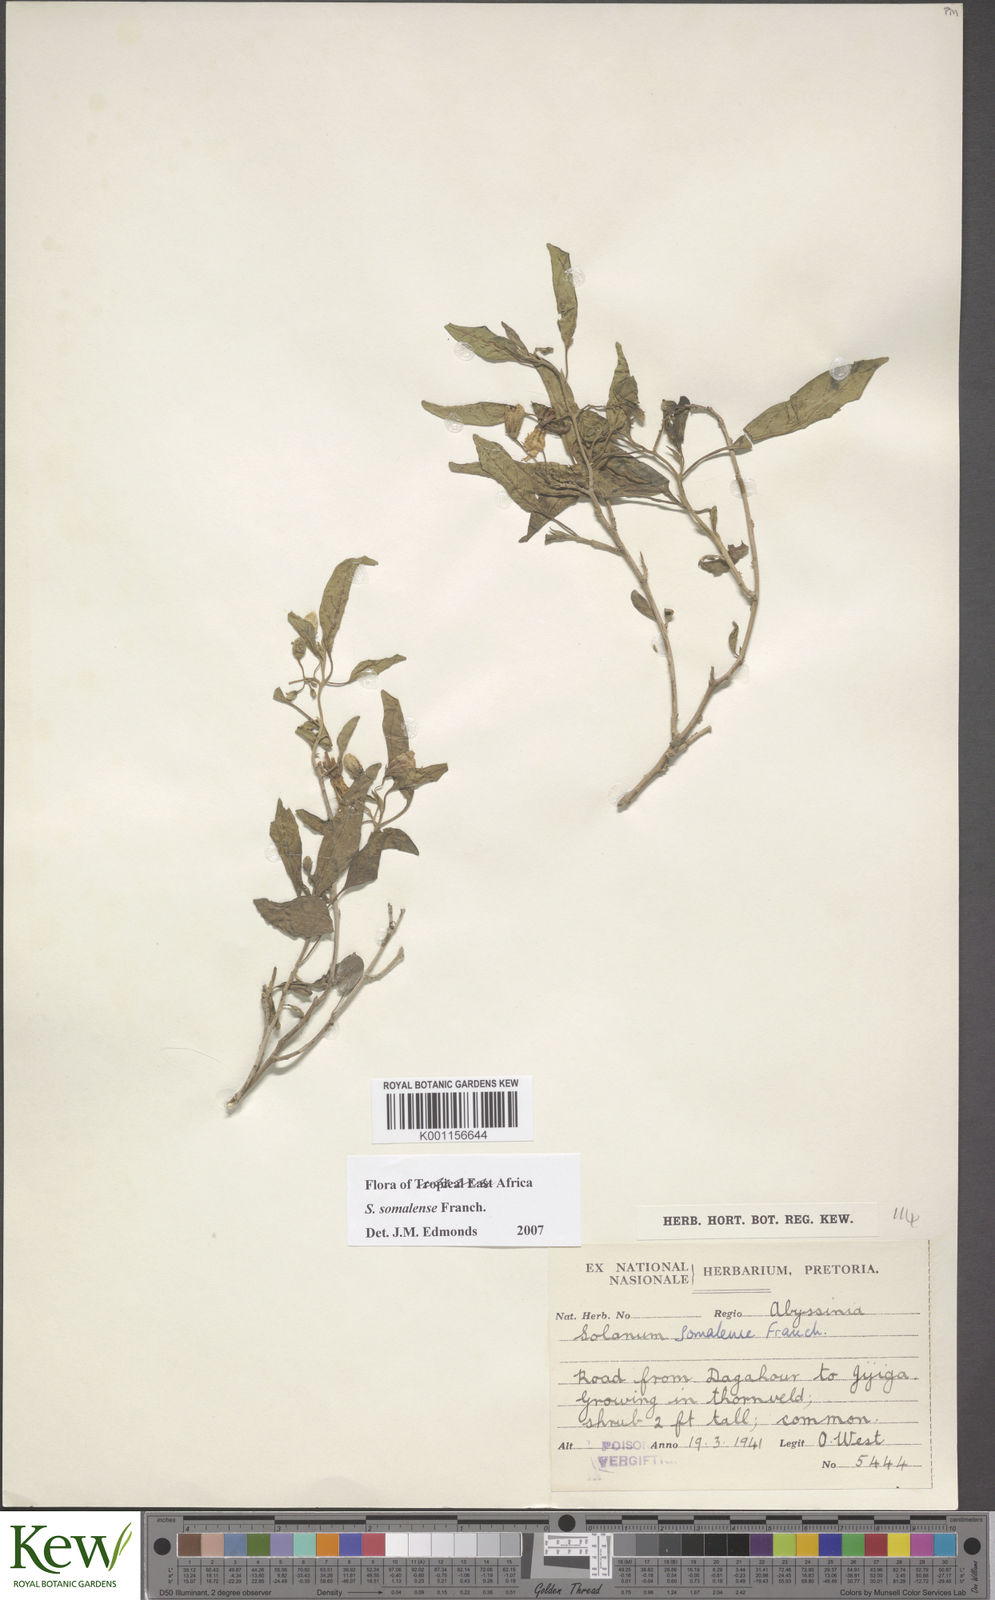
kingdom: Plantae
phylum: Tracheophyta
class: Magnoliopsida
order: Solanales
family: Solanaceae
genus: Solanum
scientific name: Solanum somalense
